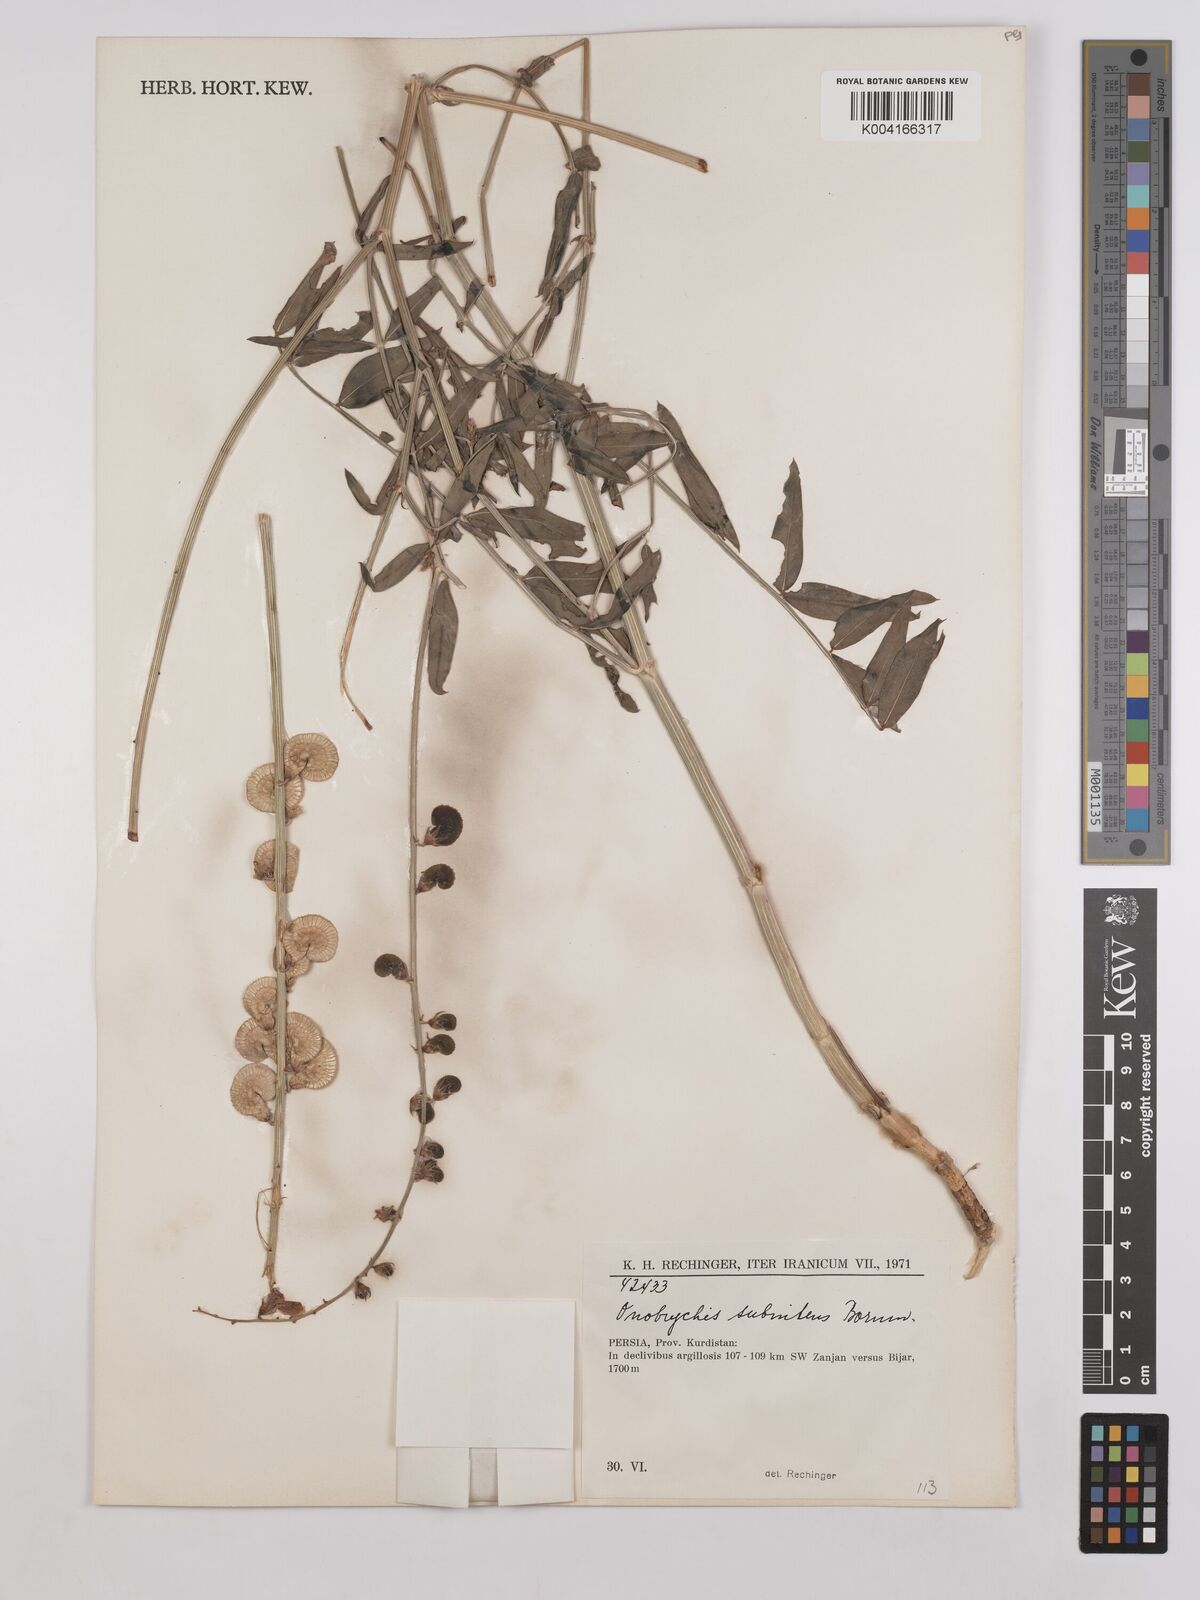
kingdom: Plantae
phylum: Tracheophyta
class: Magnoliopsida
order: Fabales
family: Fabaceae
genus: Onobrychis
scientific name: Onobrychis subnitens
